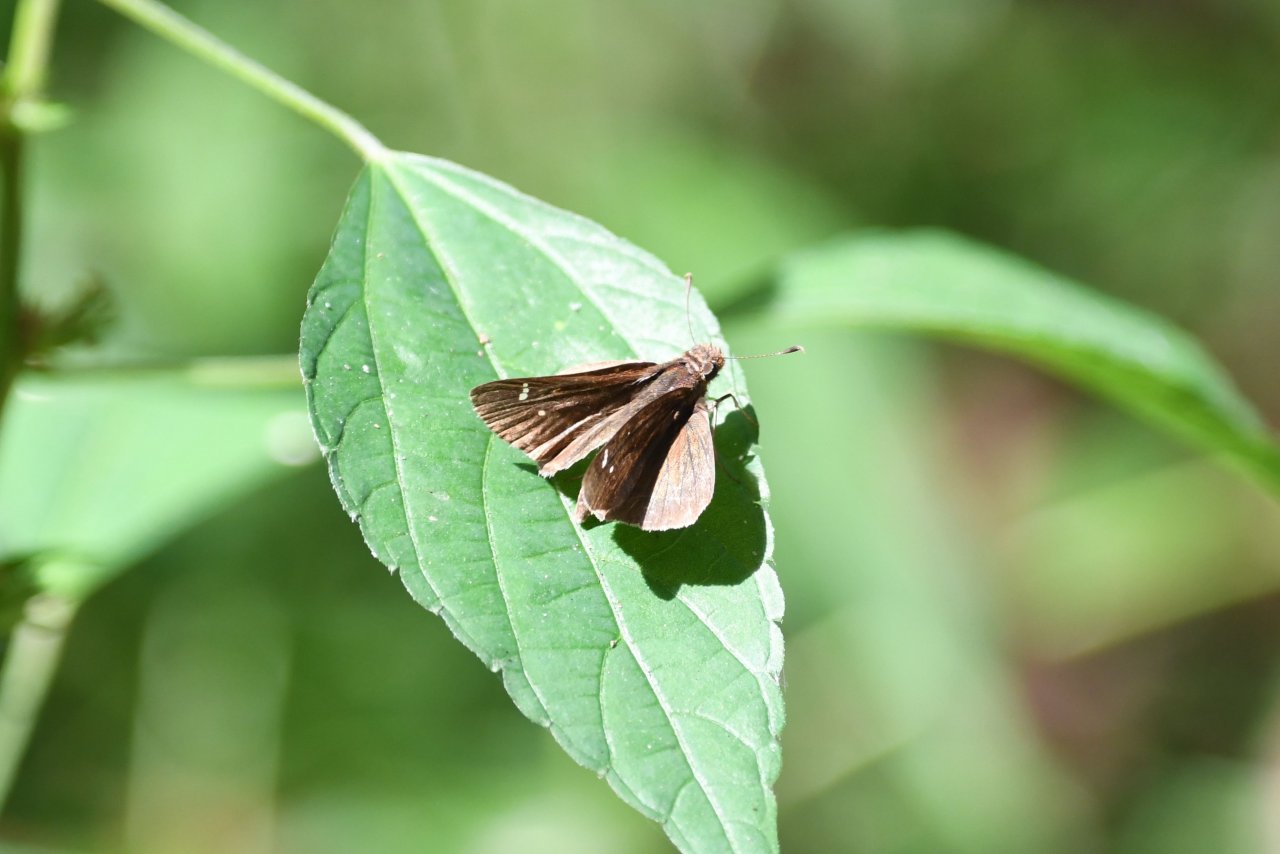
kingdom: Animalia
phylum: Arthropoda
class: Insecta
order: Lepidoptera
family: Hesperiidae
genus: Lerema
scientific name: Lerema accius
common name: Clouded Skipper
